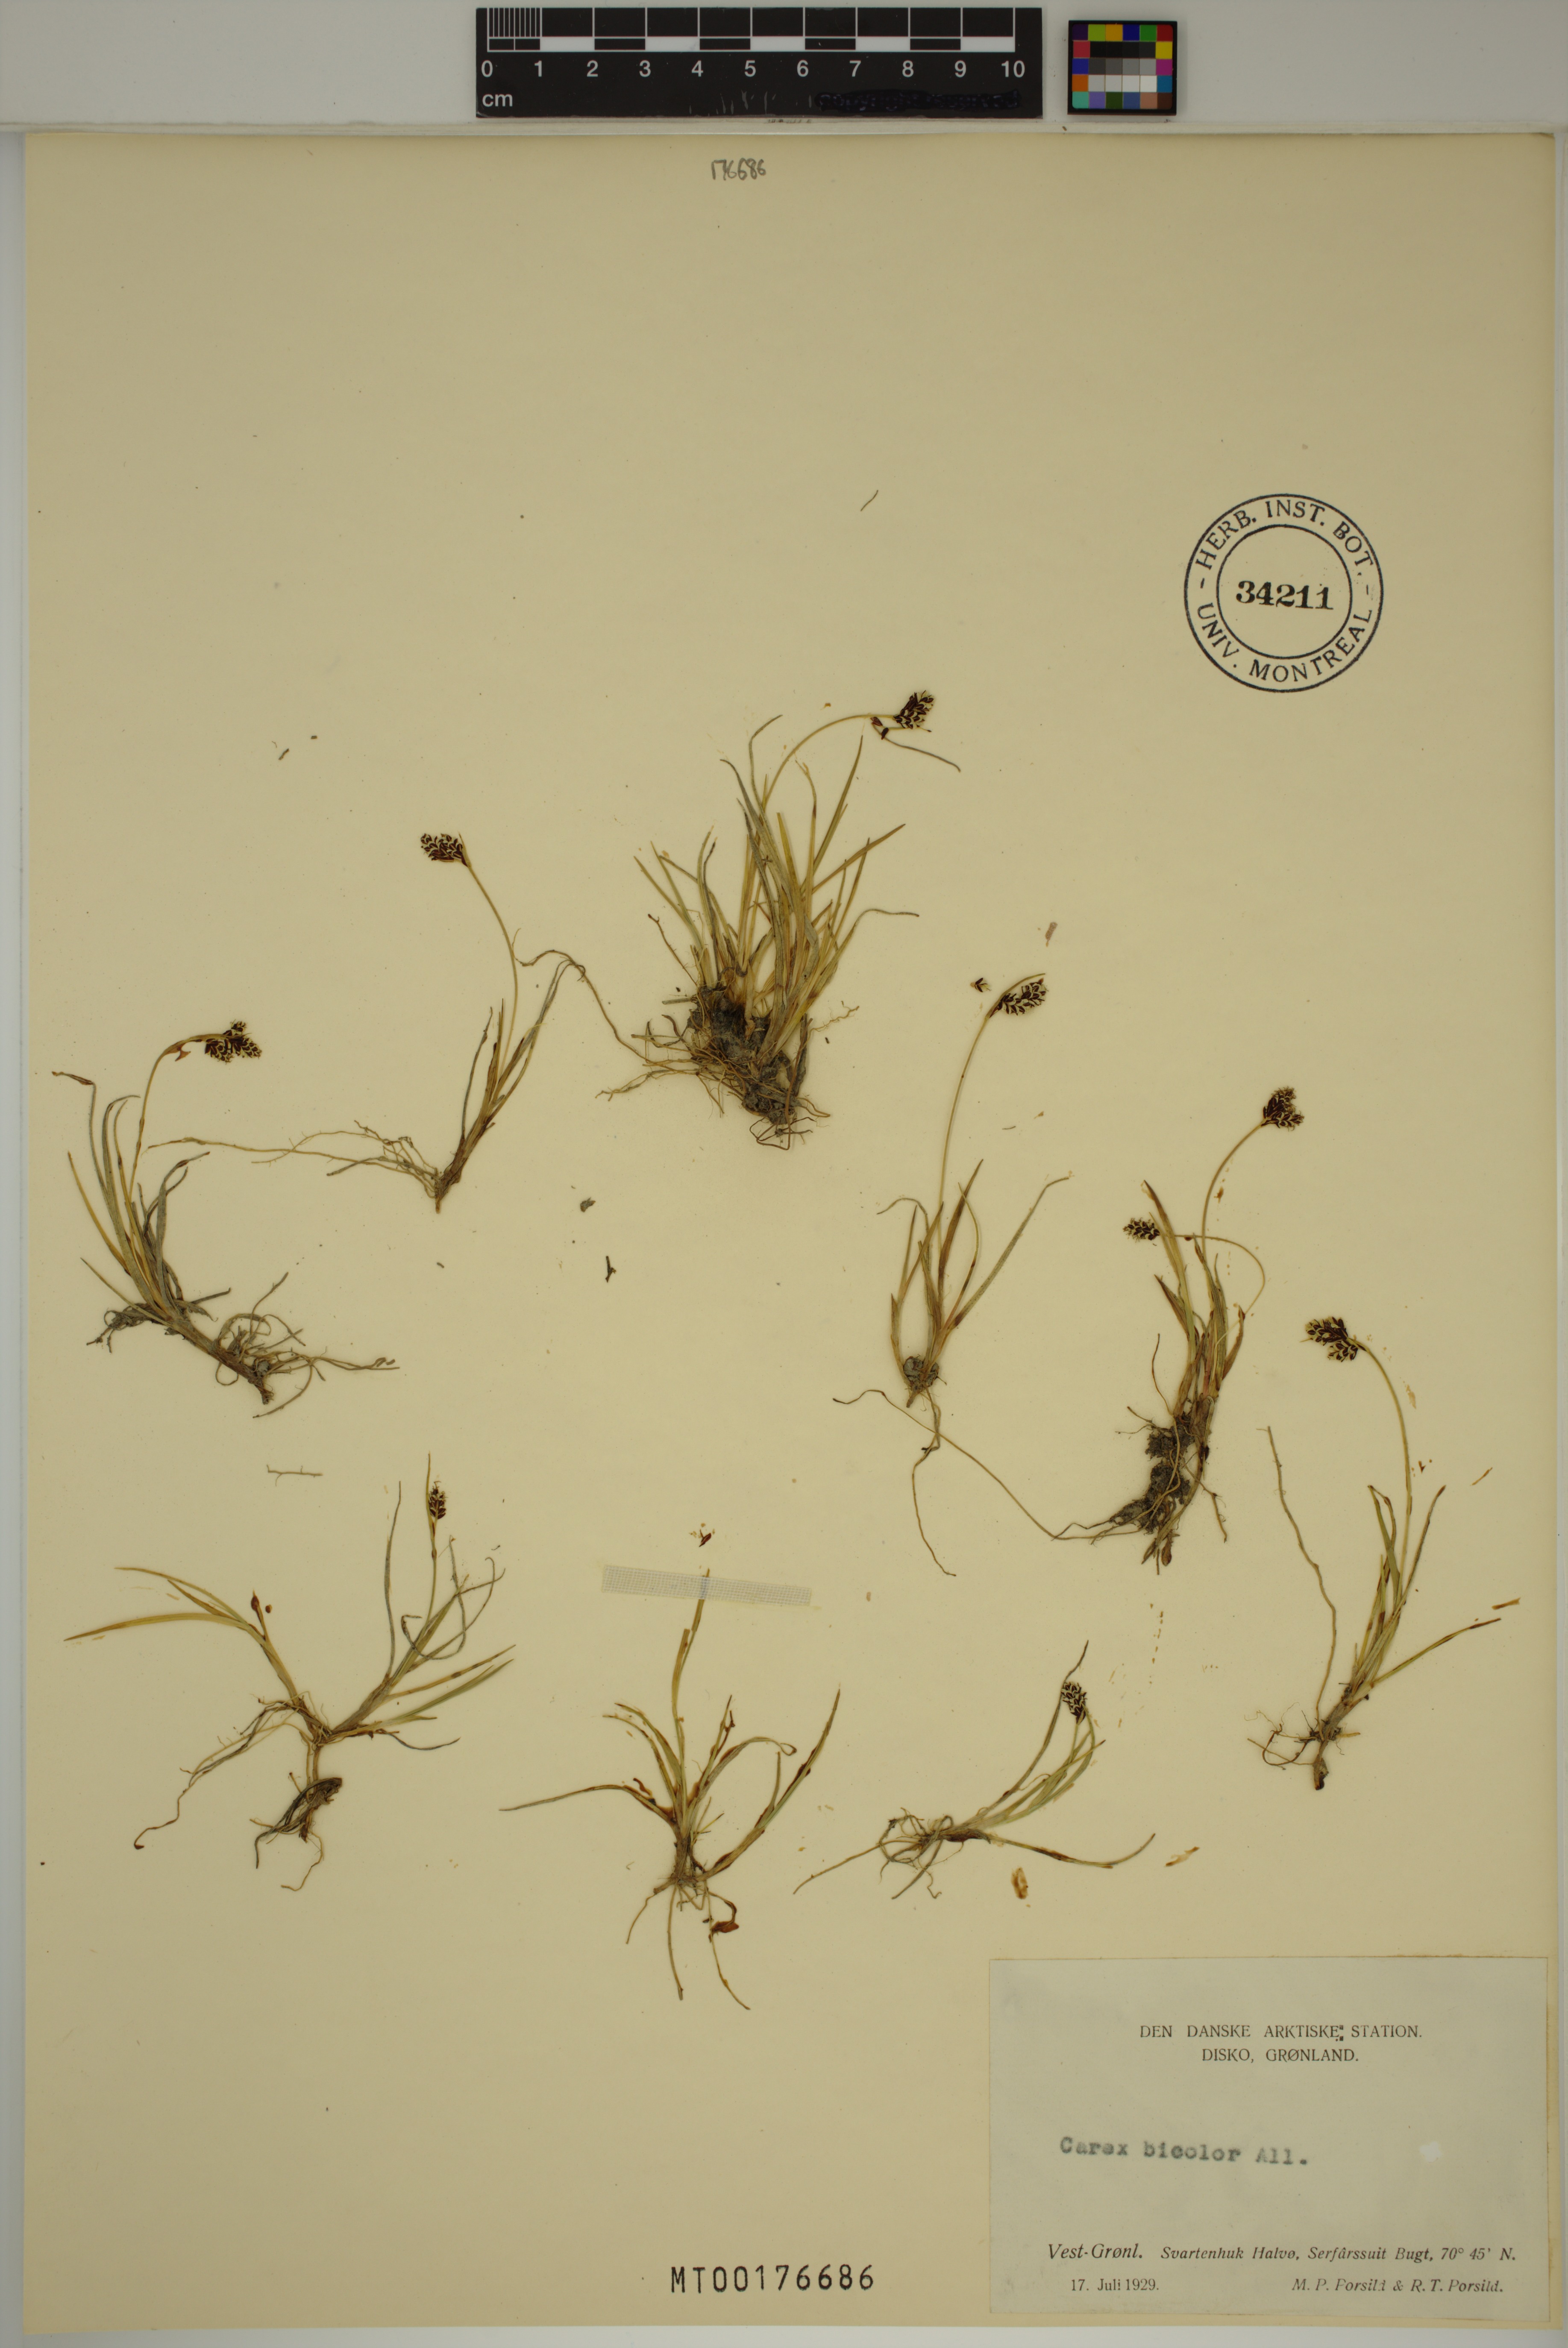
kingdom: Plantae
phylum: Tracheophyta
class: Liliopsida
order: Poales
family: Cyperaceae
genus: Carex
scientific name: Carex bicolor
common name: Bicoloured sedge
